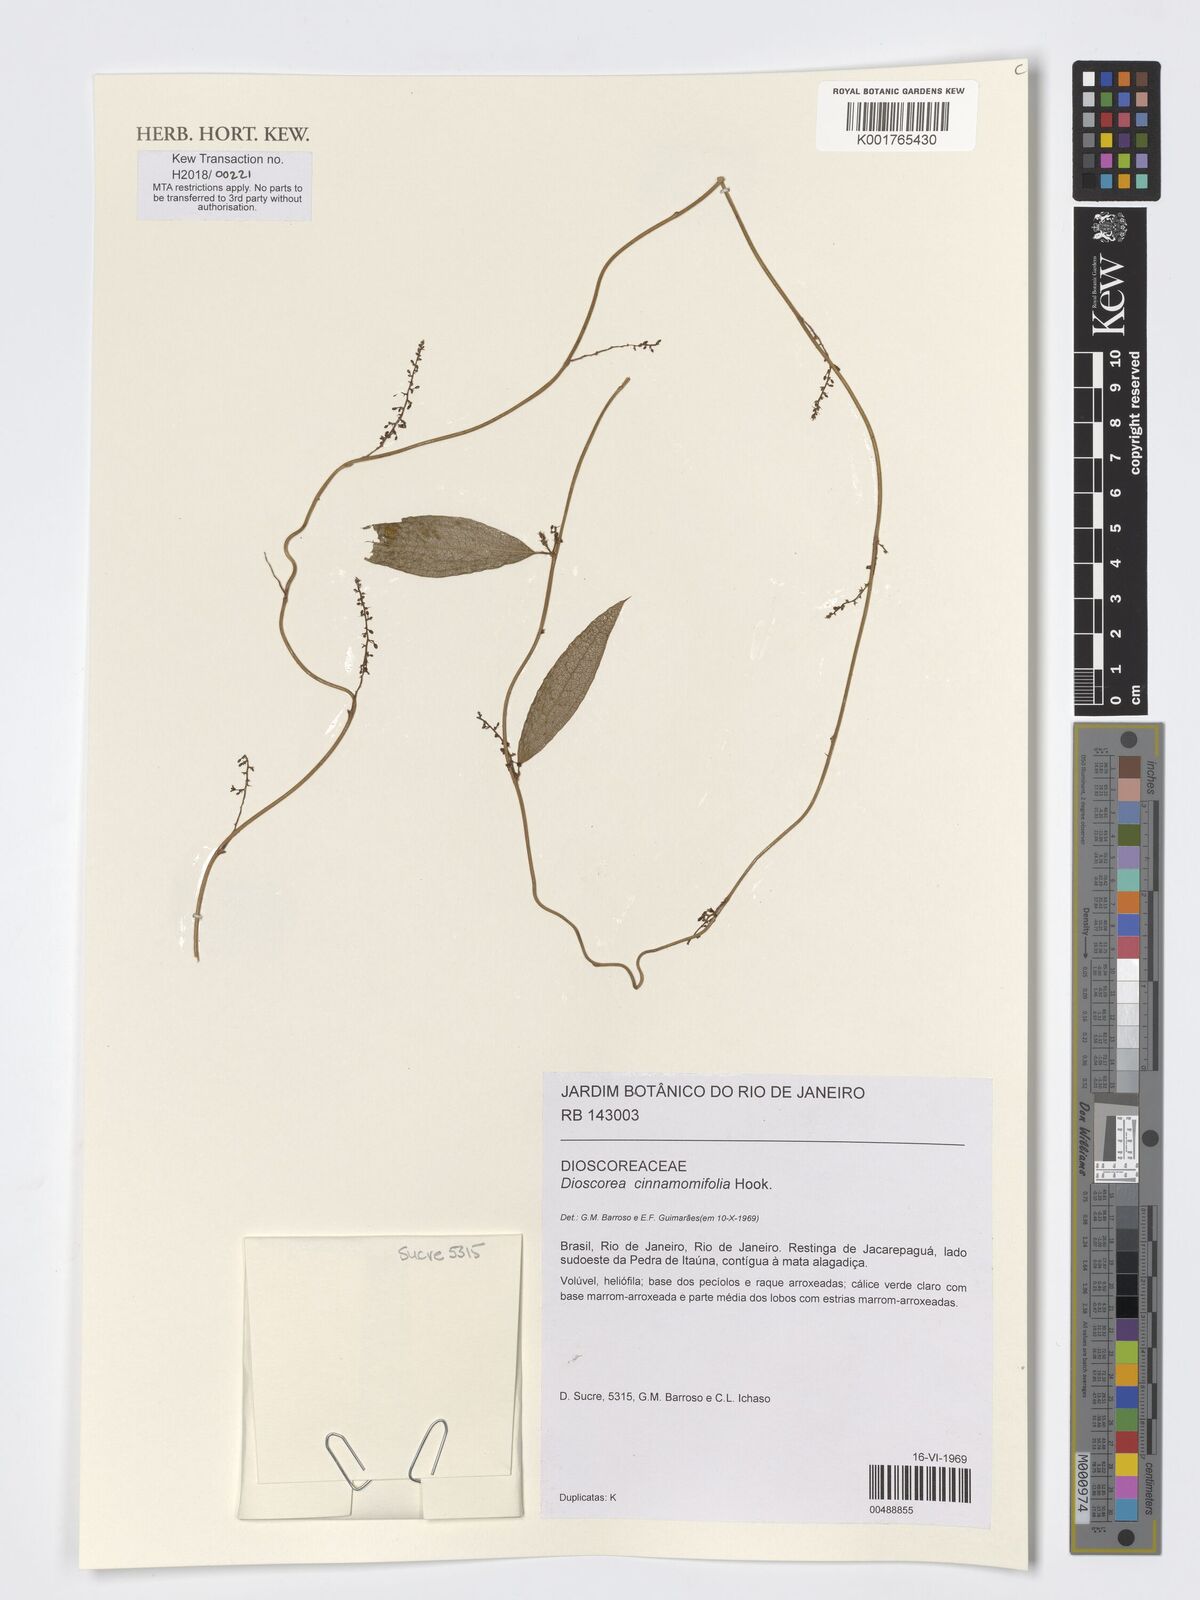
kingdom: Plantae
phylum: Tracheophyta
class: Liliopsida
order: Dioscoreales
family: Dioscoreaceae
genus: Dioscorea
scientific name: Dioscorea cinnamomifolia
